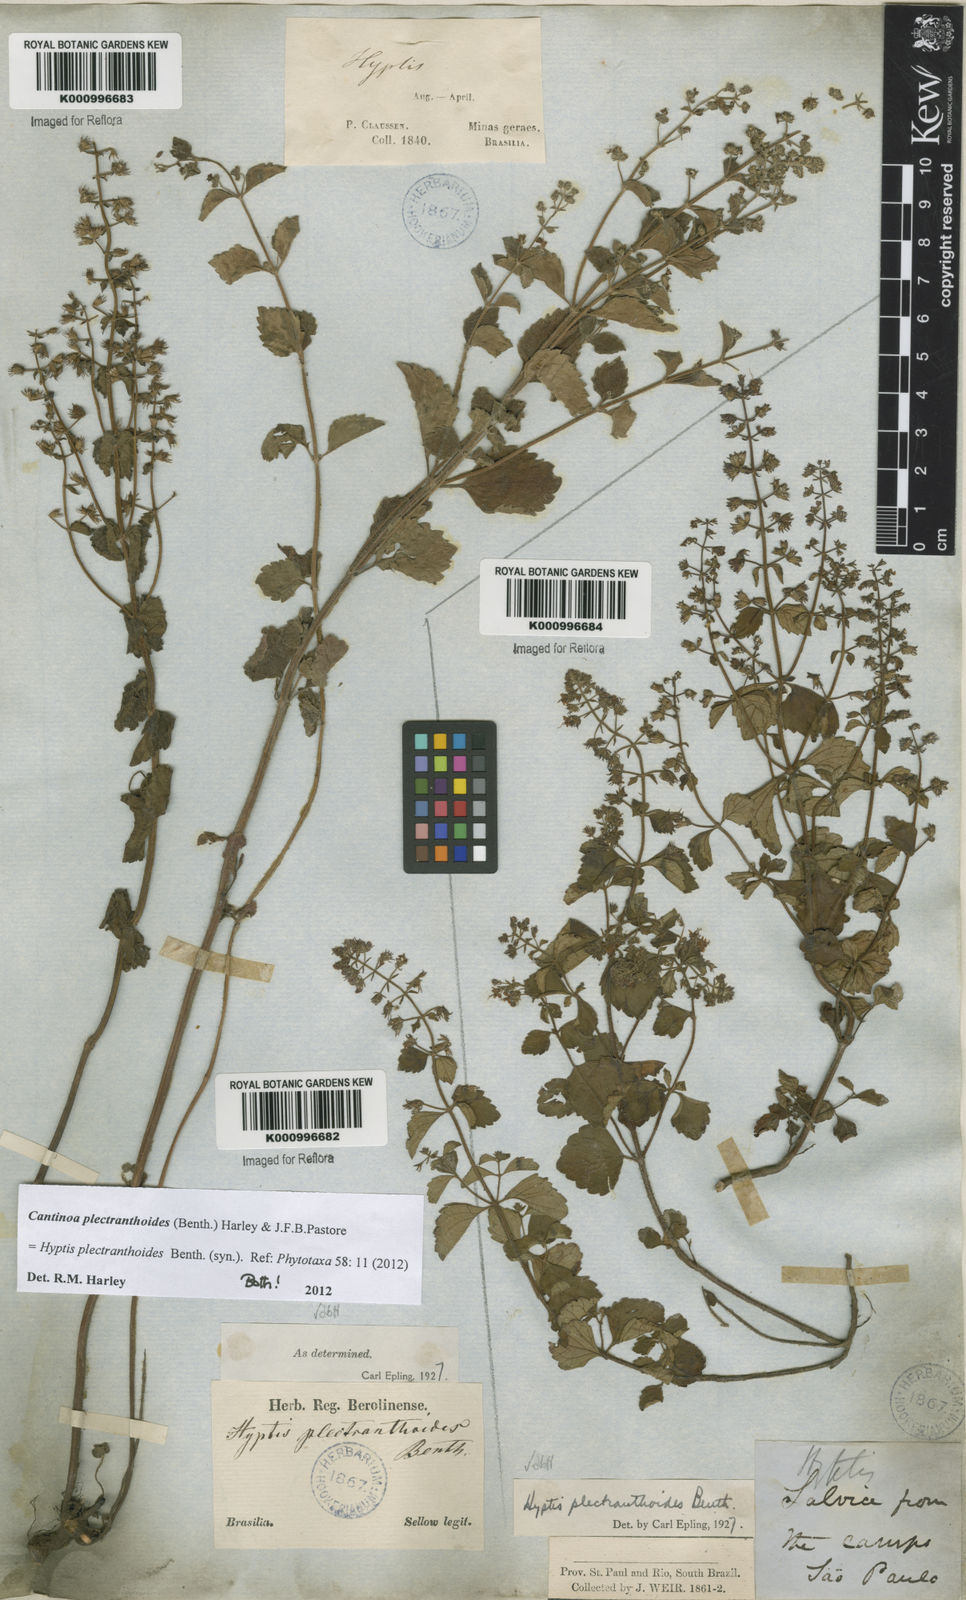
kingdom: Plantae
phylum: Tracheophyta
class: Magnoliopsida
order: Lamiales
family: Lamiaceae
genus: Cantinoa
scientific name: Cantinoa plectranthoides
